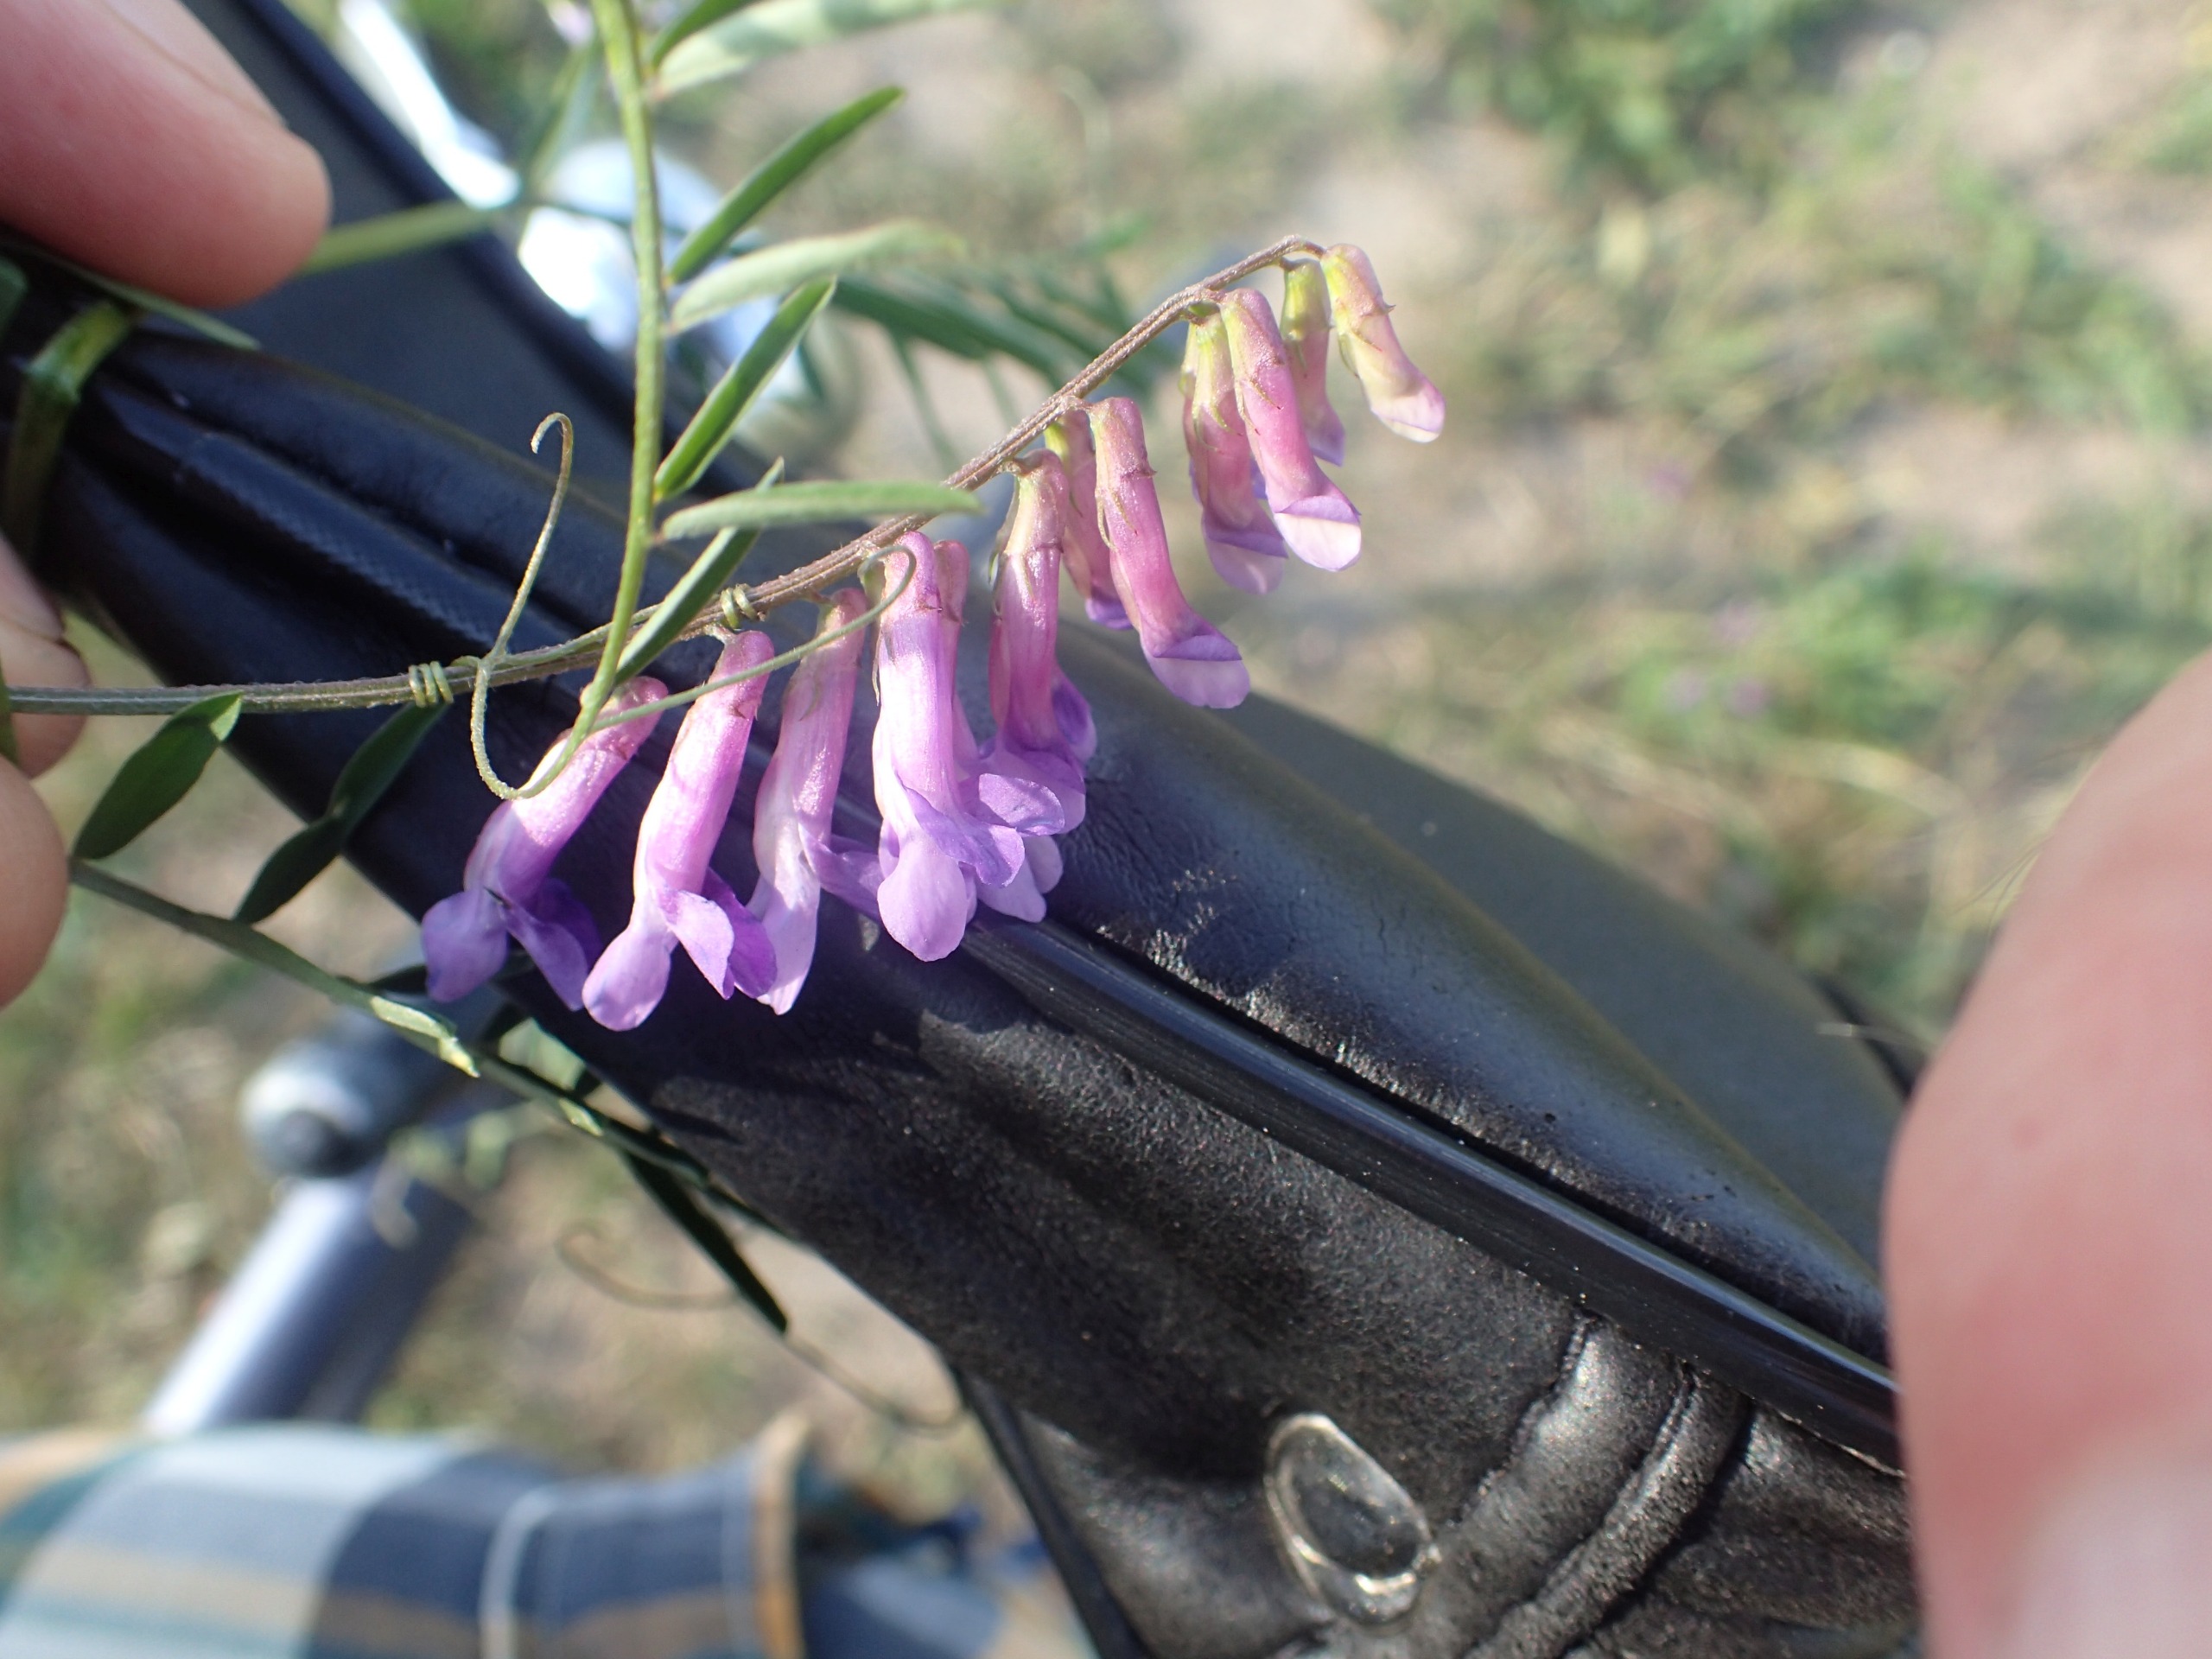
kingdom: Plantae
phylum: Tracheophyta
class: Magnoliopsida
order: Fabales
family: Fabaceae
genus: Vicia
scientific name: Vicia villosa
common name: Glat vikke
